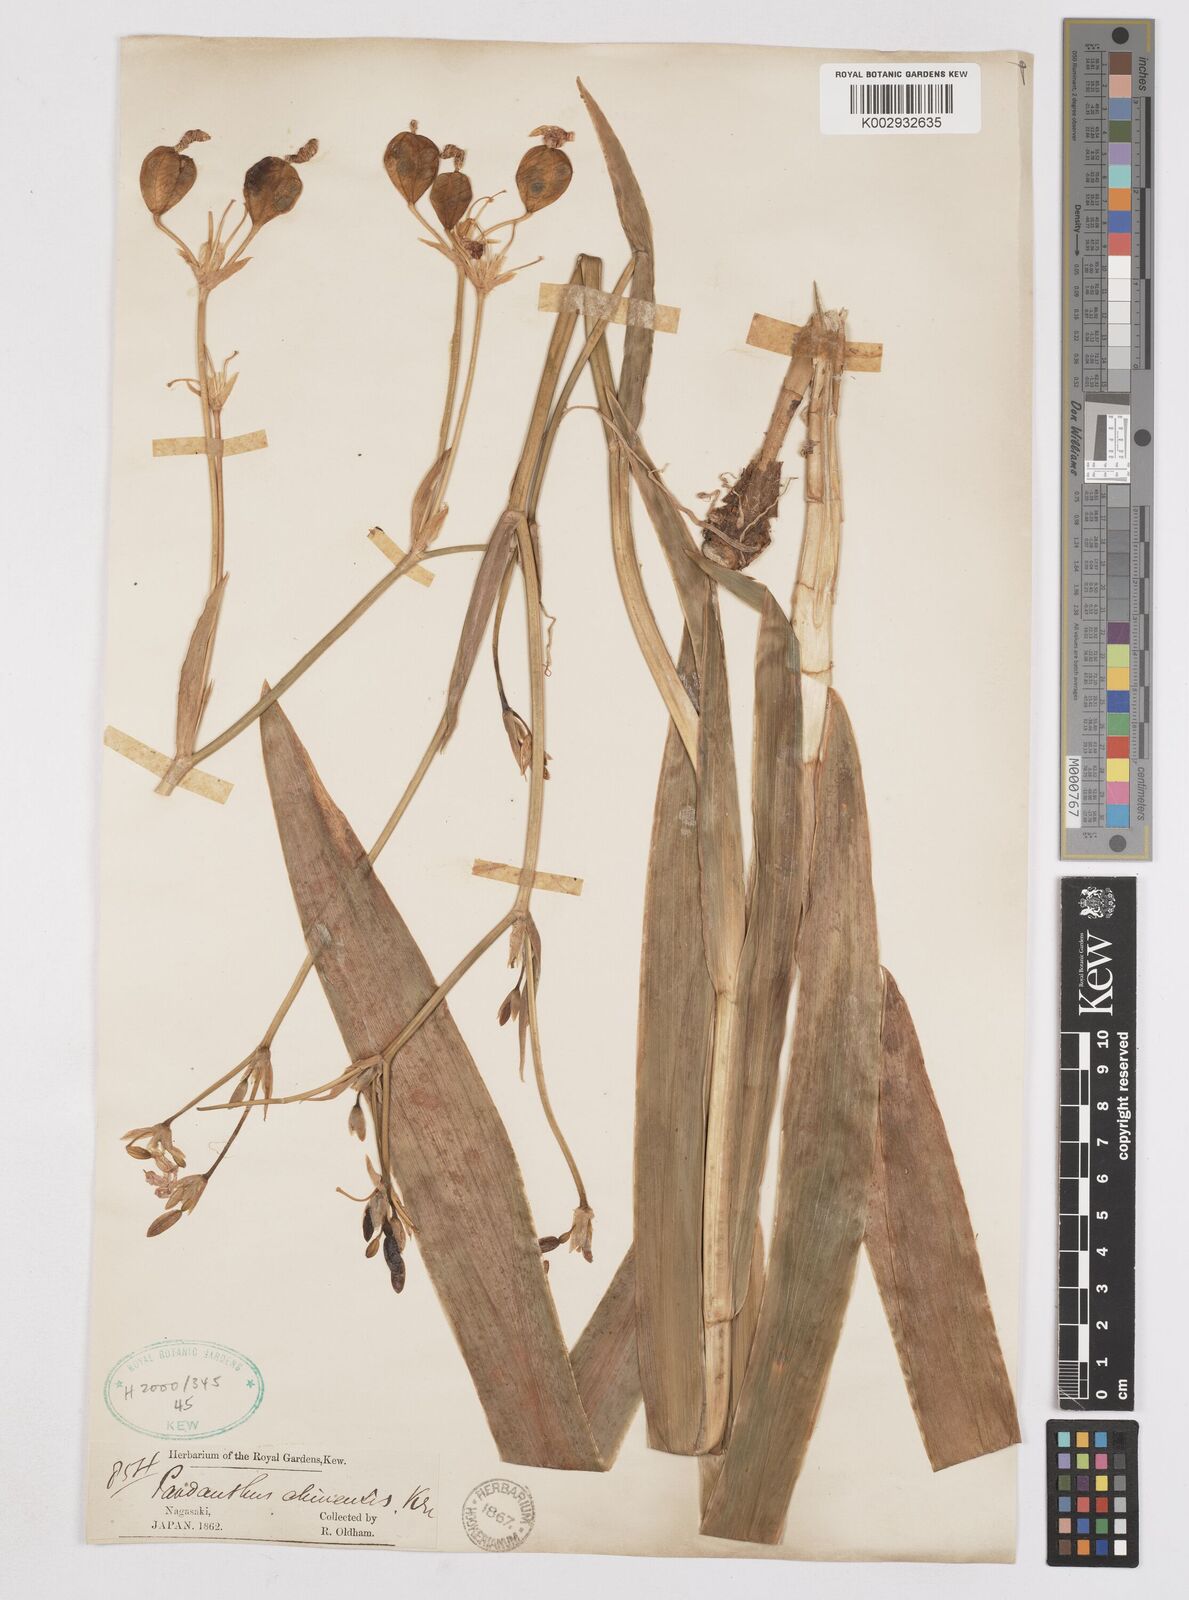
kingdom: Plantae
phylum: Tracheophyta
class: Liliopsida
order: Asparagales
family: Iridaceae
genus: Iris
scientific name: Iris
